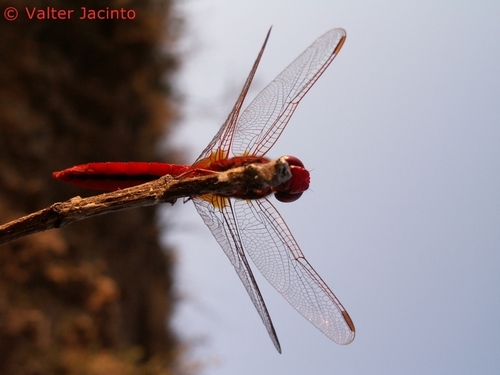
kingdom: Animalia
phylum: Arthropoda
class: Insecta
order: Odonata
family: Libellulidae
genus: Crocothemis
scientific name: Crocothemis erythraea
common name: Scarlet dragonfly
